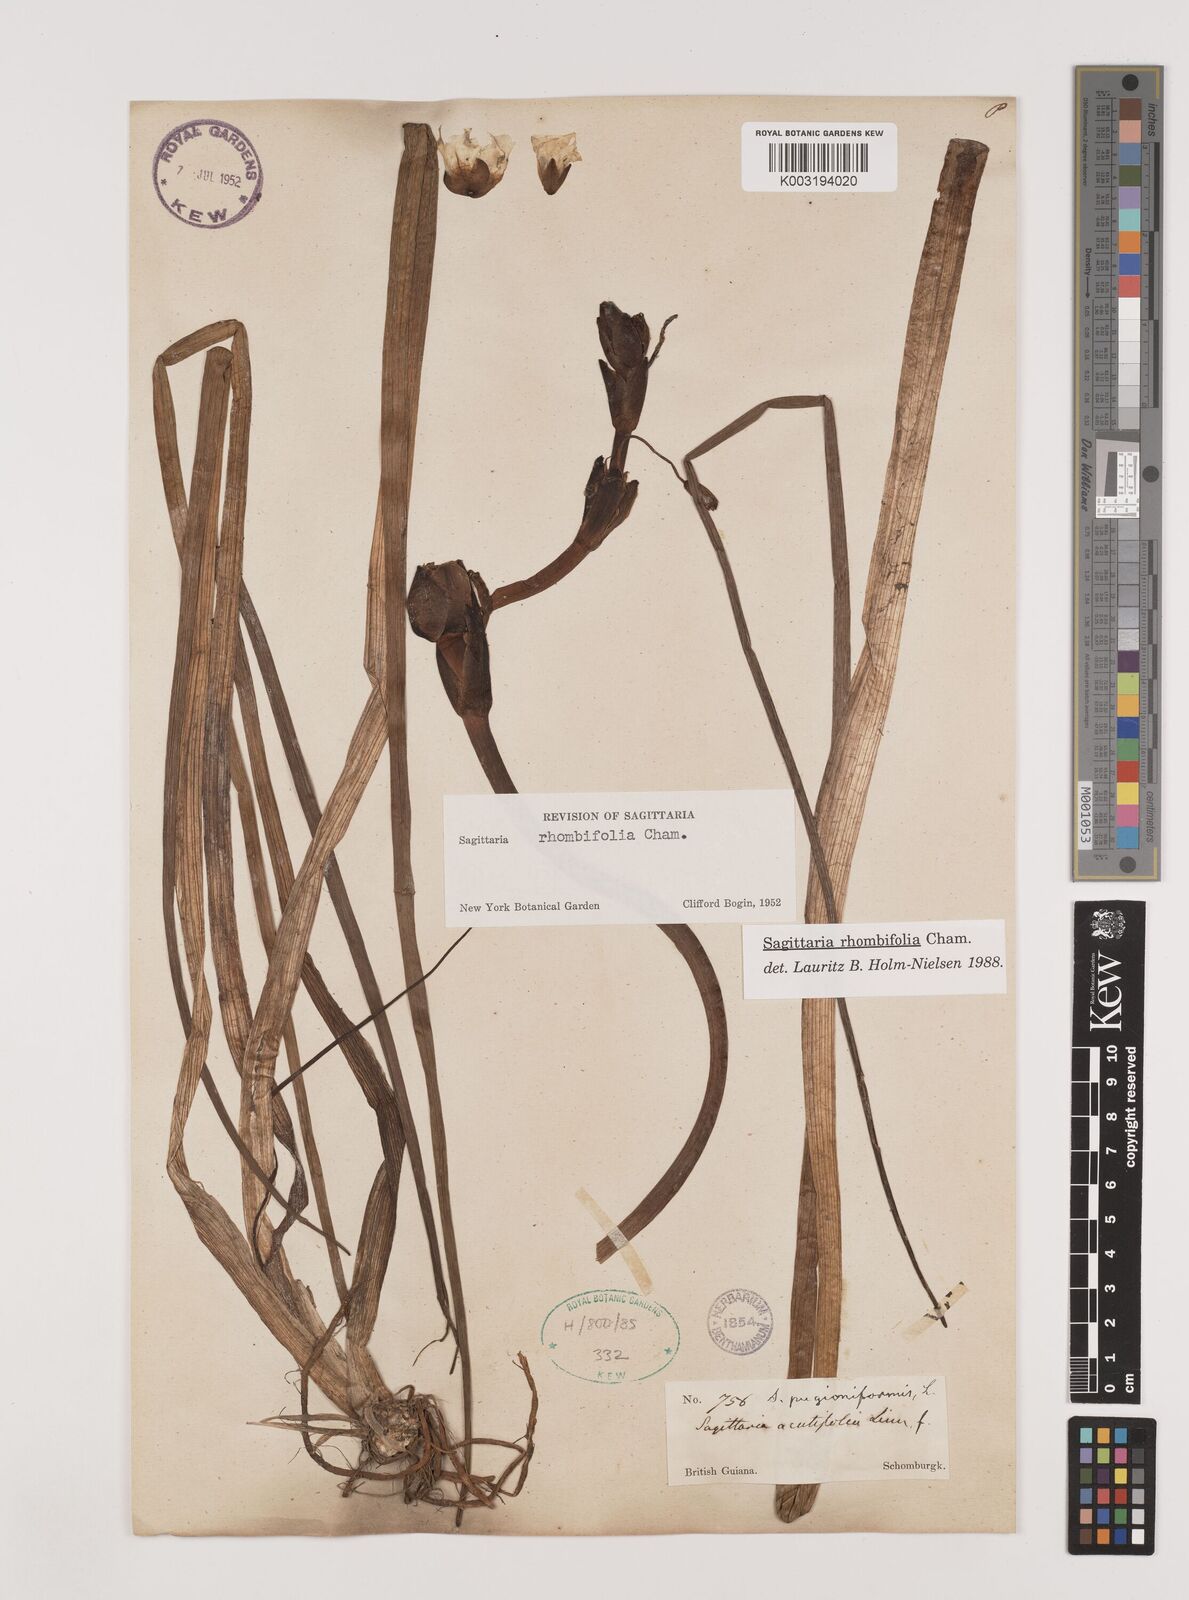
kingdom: Plantae
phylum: Tracheophyta
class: Liliopsida
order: Alismatales
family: Alismataceae
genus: Sagittaria
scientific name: Sagittaria rhombifolia
